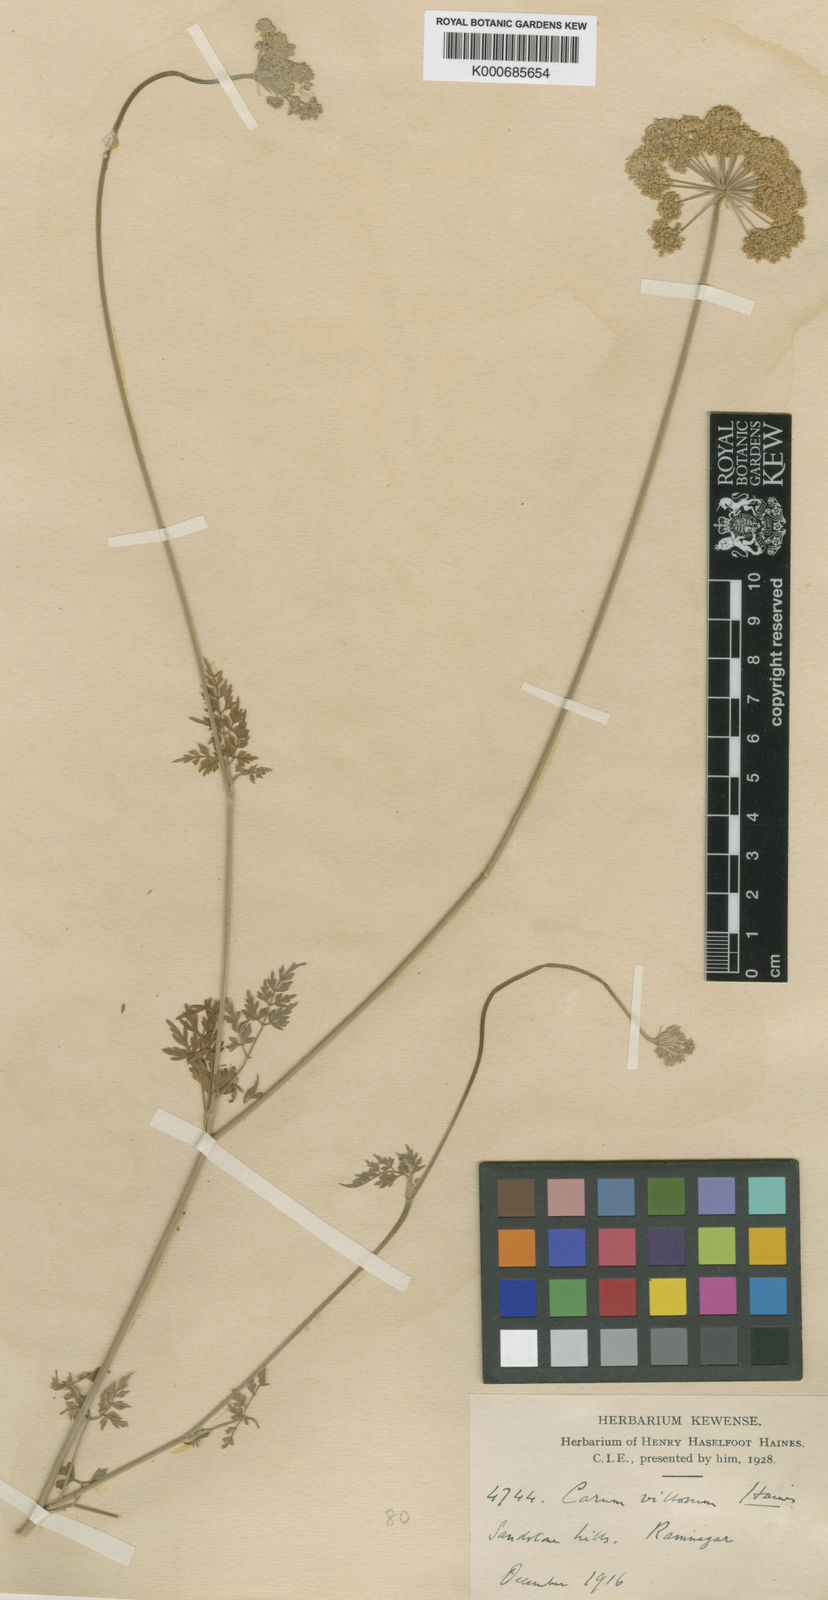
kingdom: Plantae
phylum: Tracheophyta
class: Magnoliopsida
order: Apiales
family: Apiaceae
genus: Trachyspermum
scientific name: Trachyspermum villosum
